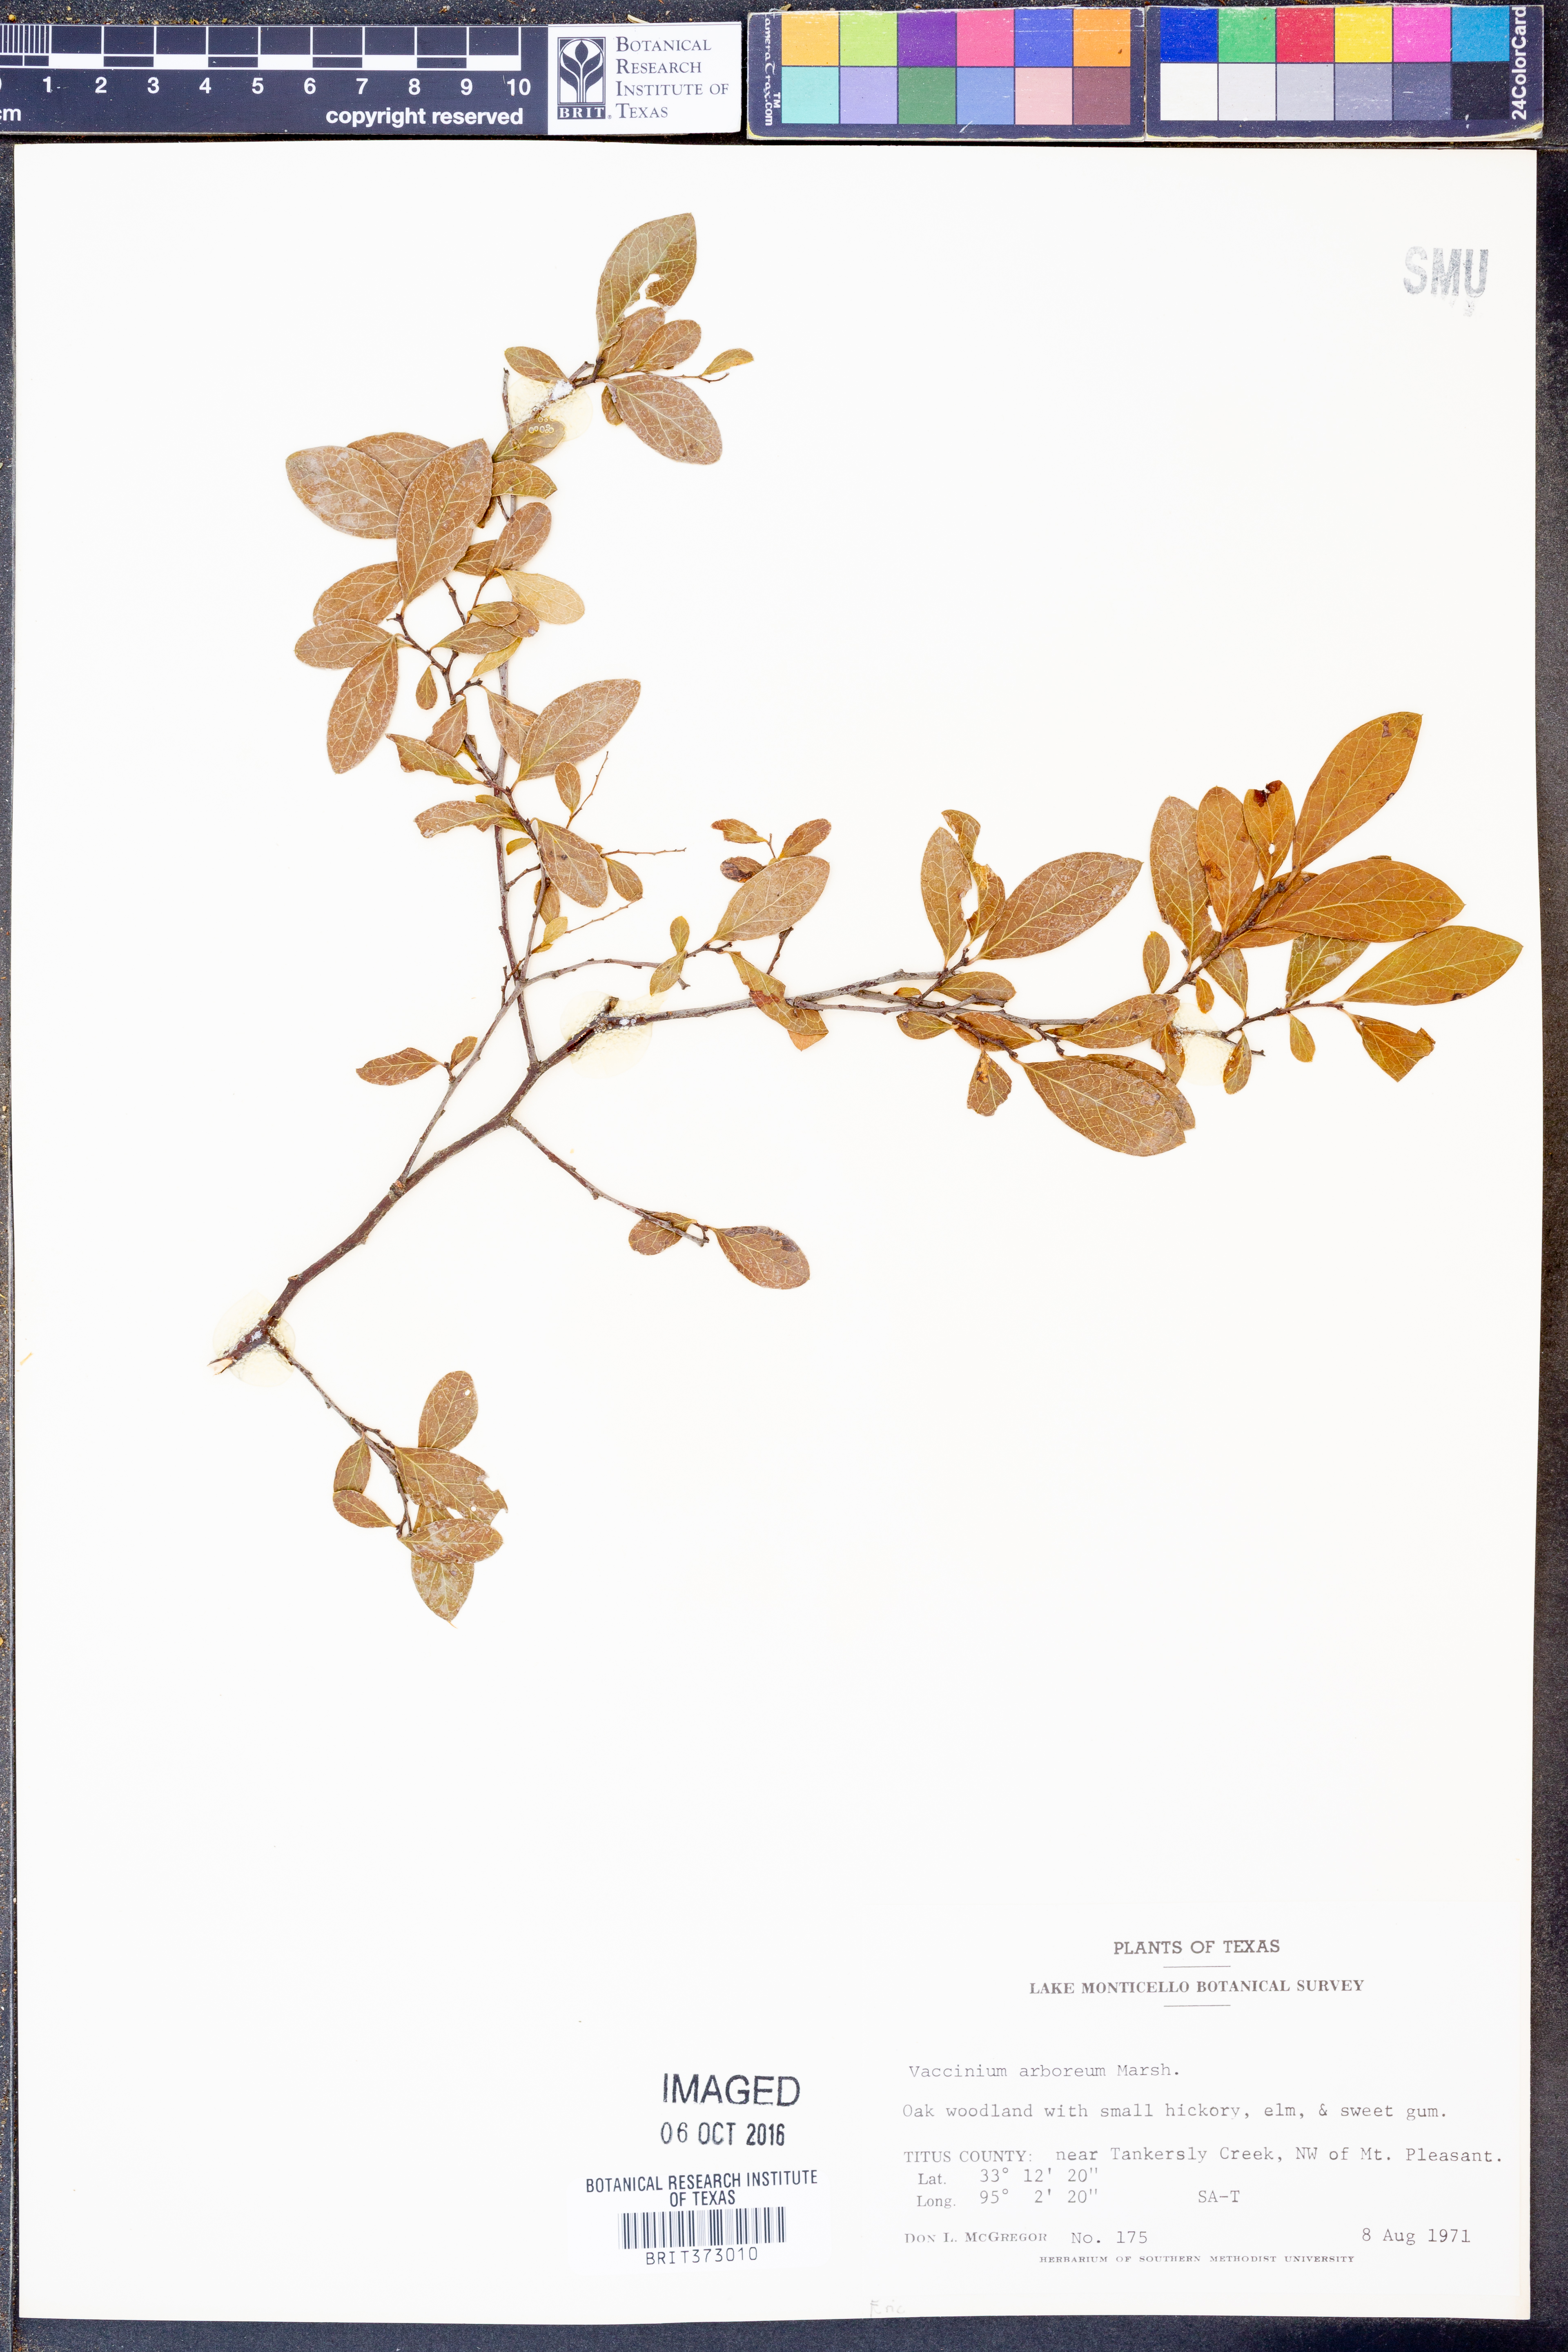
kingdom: Plantae
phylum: Tracheophyta
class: Magnoliopsida
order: Ericales
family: Ericaceae
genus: Vaccinium
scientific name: Vaccinium arboreum
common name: Farkleberry
